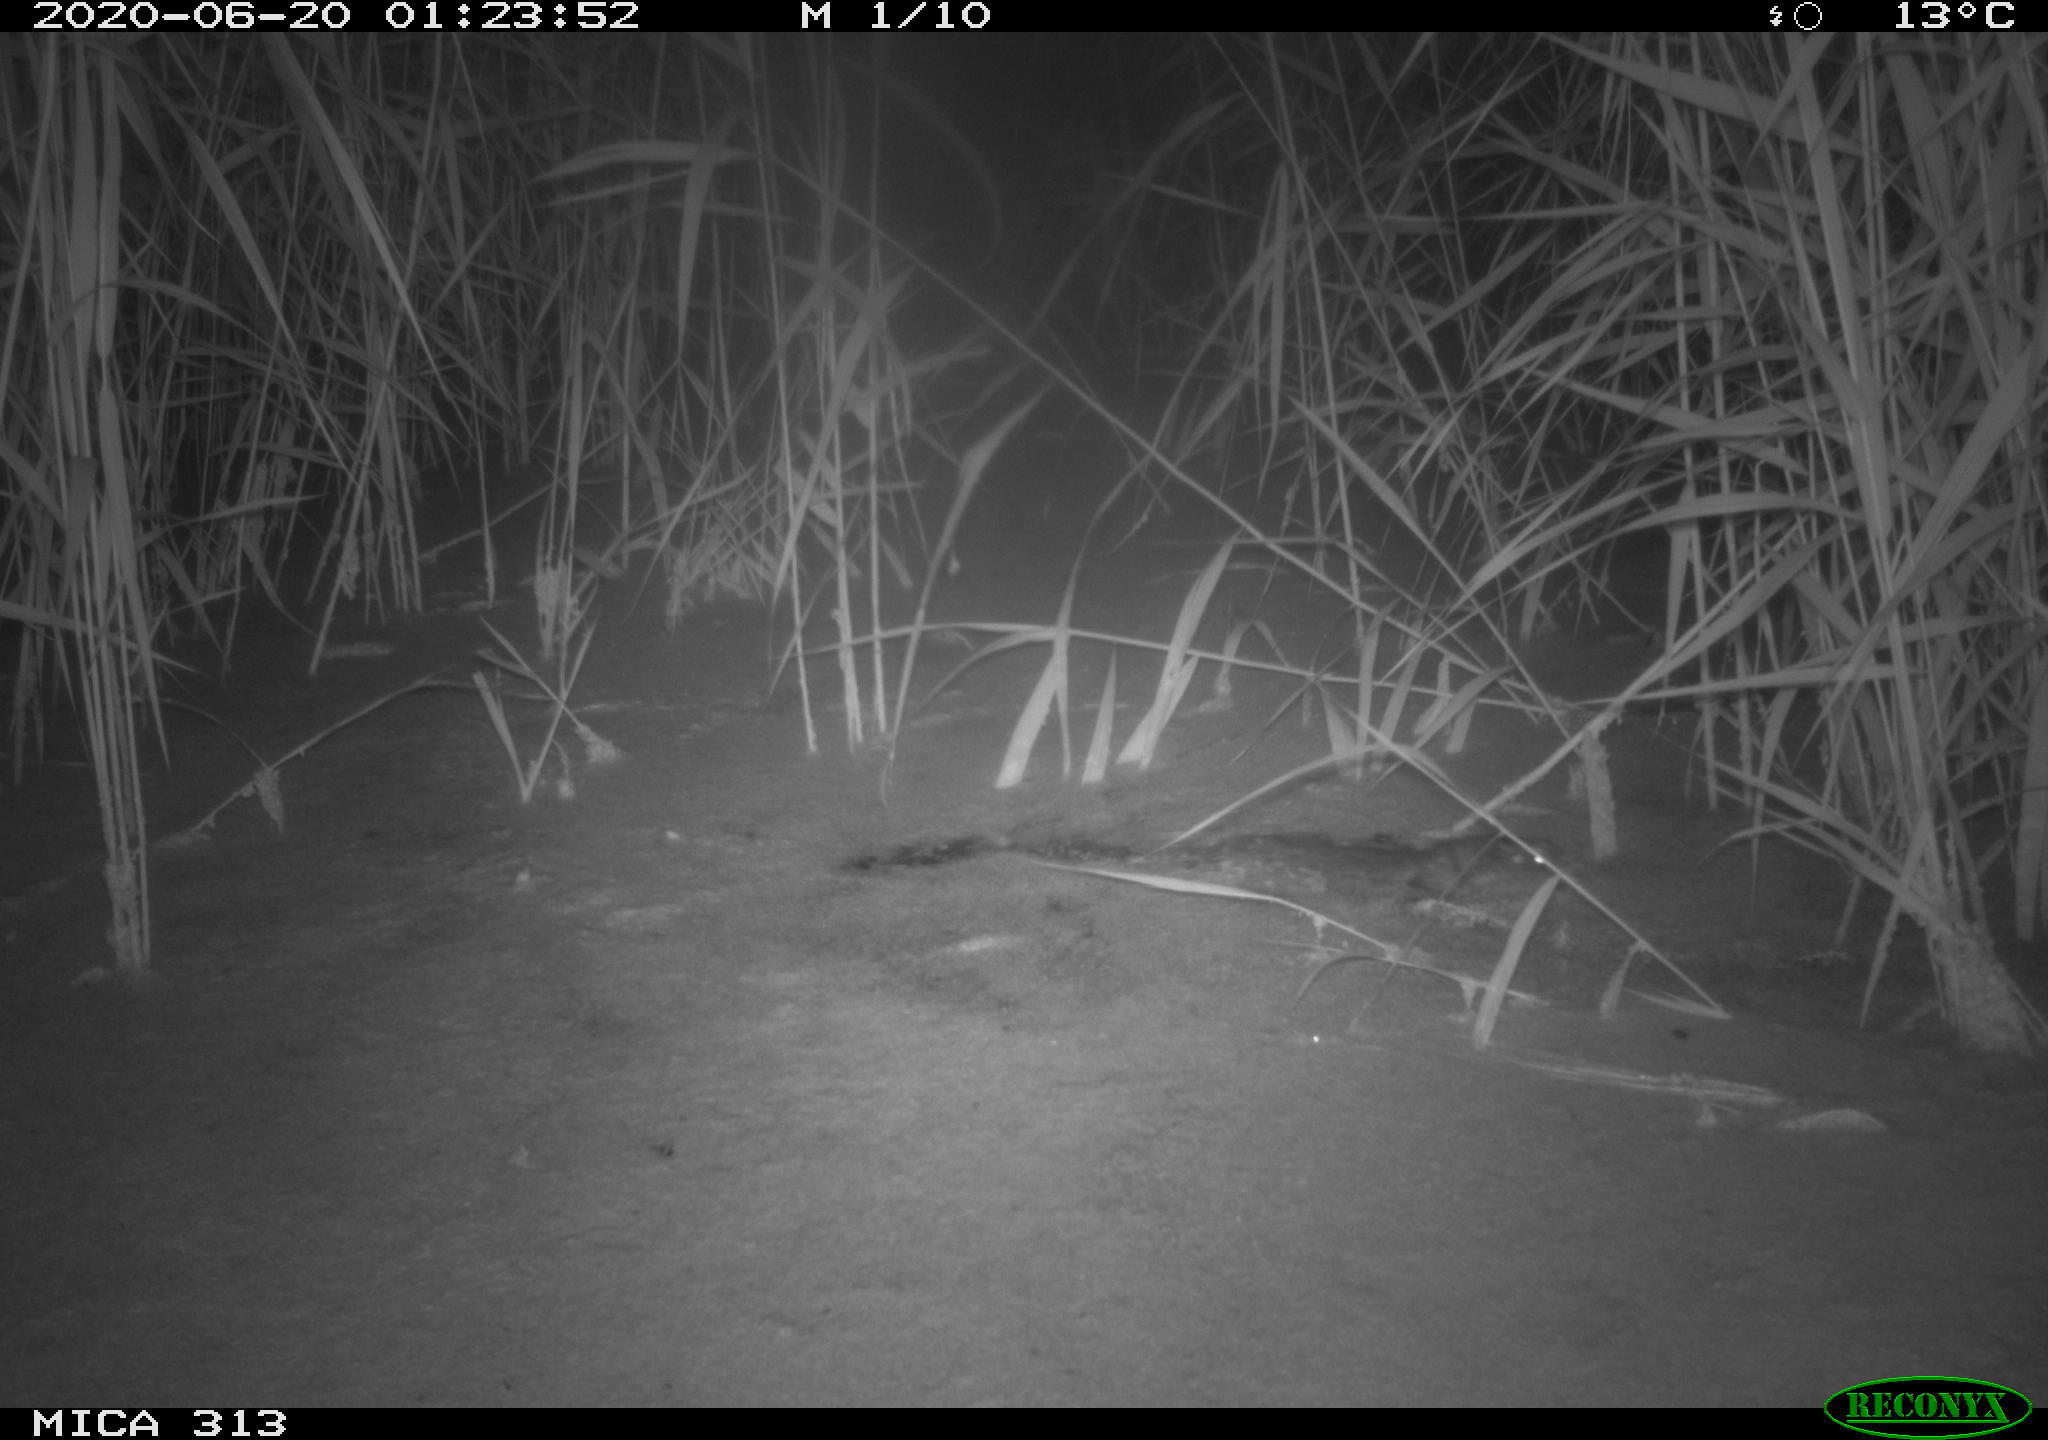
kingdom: Animalia
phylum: Chordata
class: Mammalia
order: Rodentia
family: Muridae
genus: Rattus
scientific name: Rattus norvegicus
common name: Brown rat
